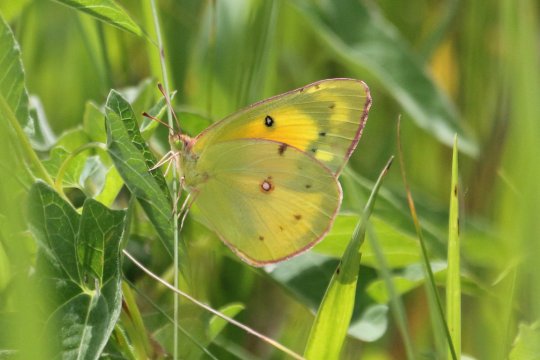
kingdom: Animalia
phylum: Arthropoda
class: Insecta
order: Lepidoptera
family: Pieridae
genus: Colias
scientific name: Colias eurytheme
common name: Orange Sulphur
